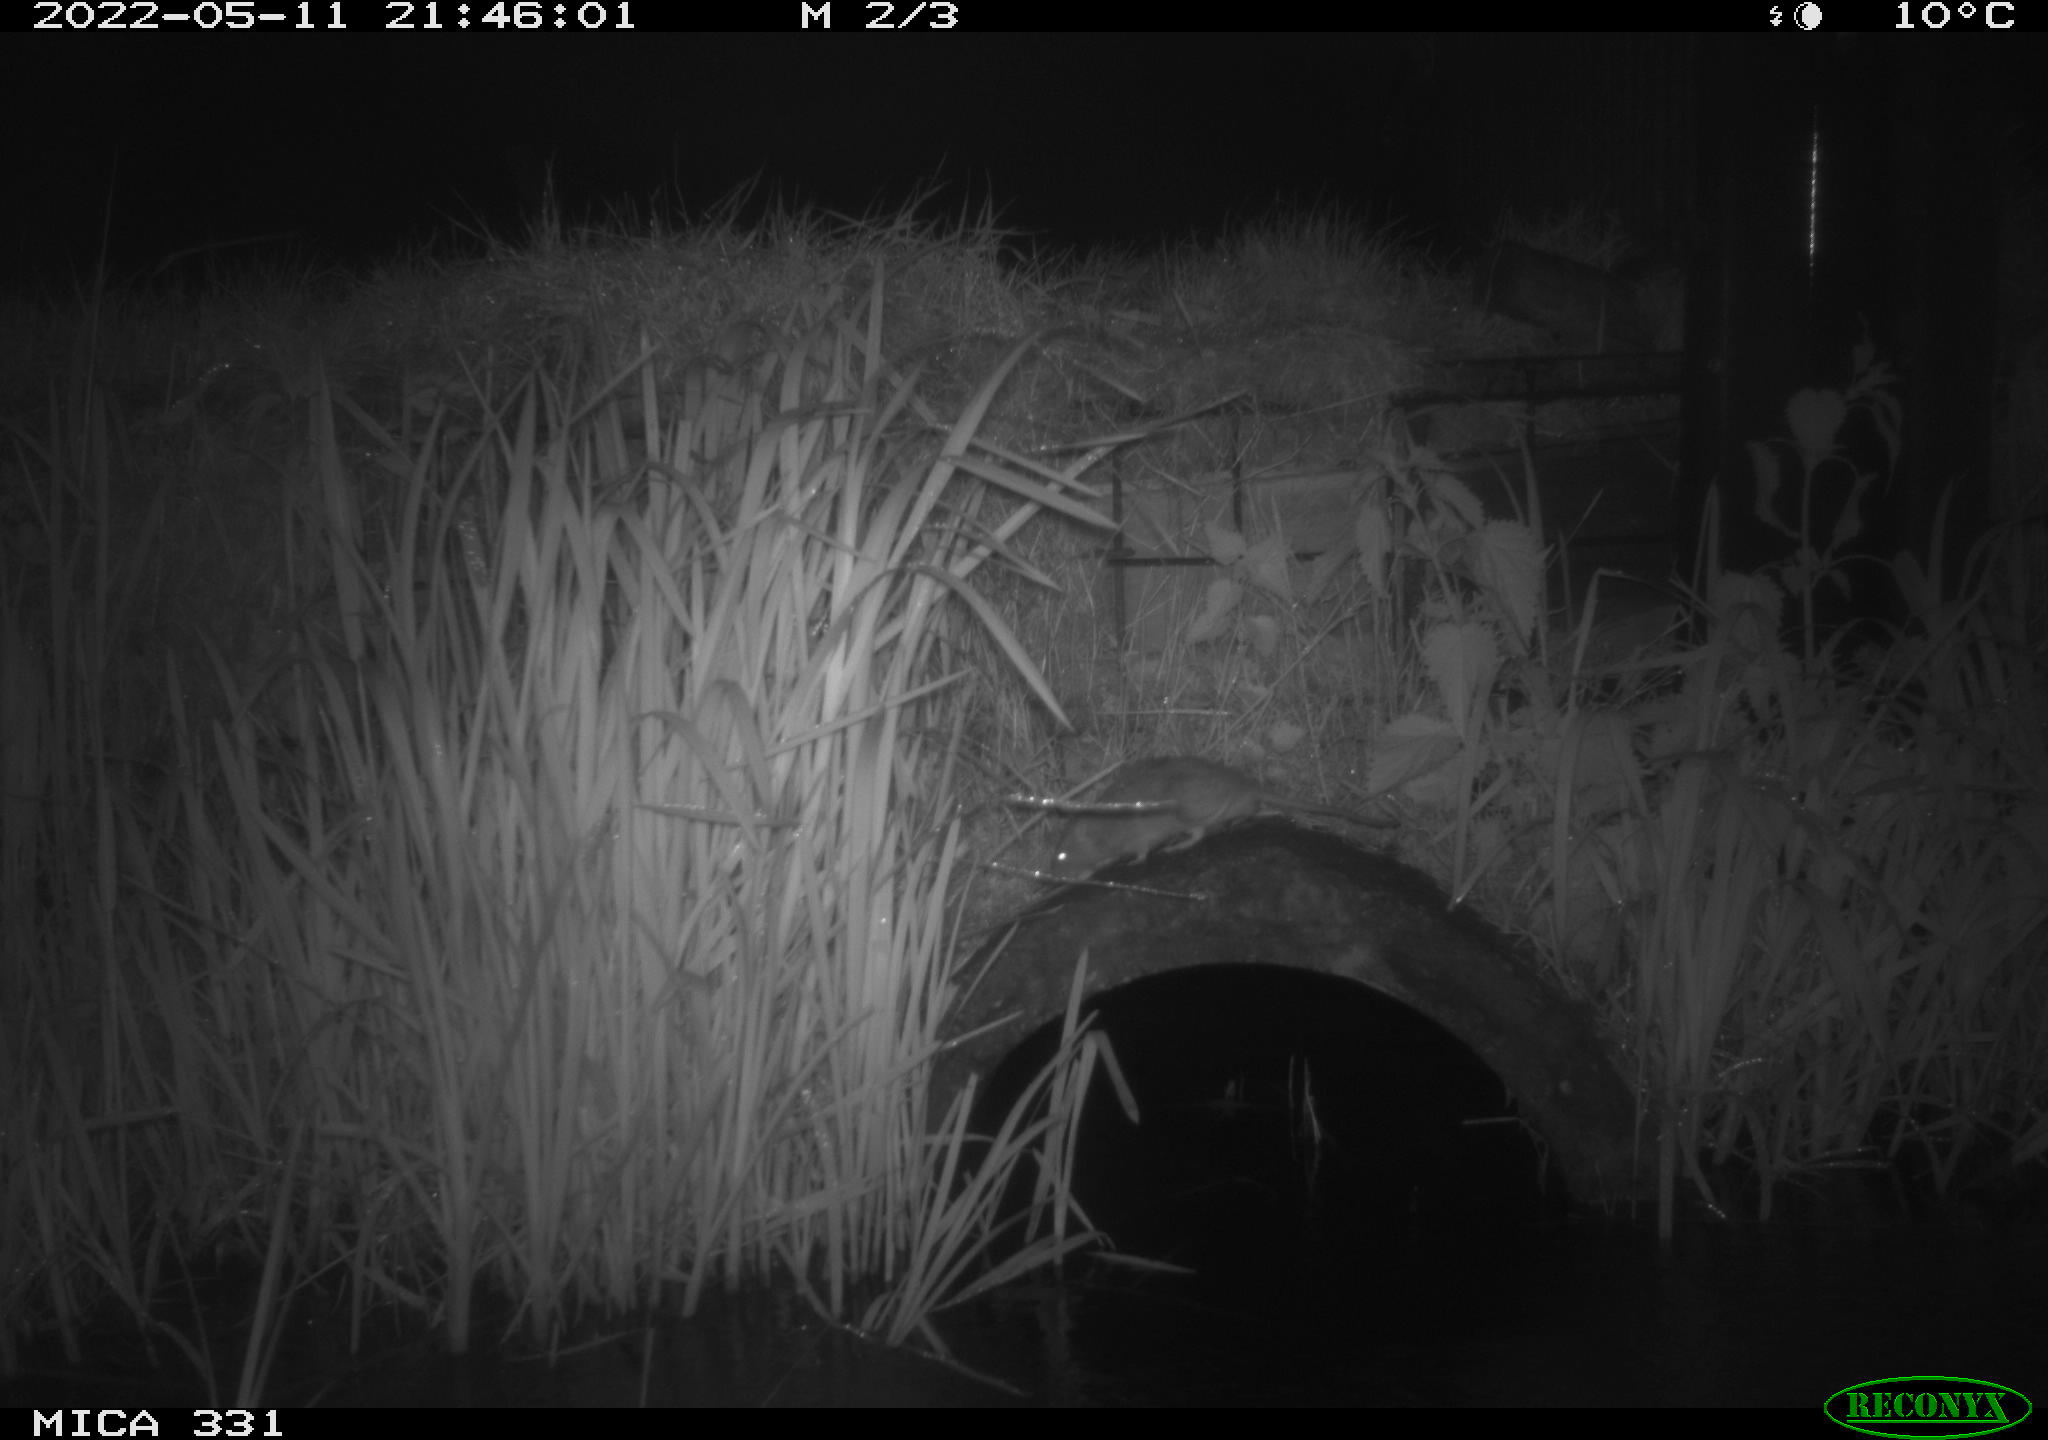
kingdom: Animalia
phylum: Chordata
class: Mammalia
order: Rodentia
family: Muridae
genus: Rattus
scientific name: Rattus norvegicus
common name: Brown rat
